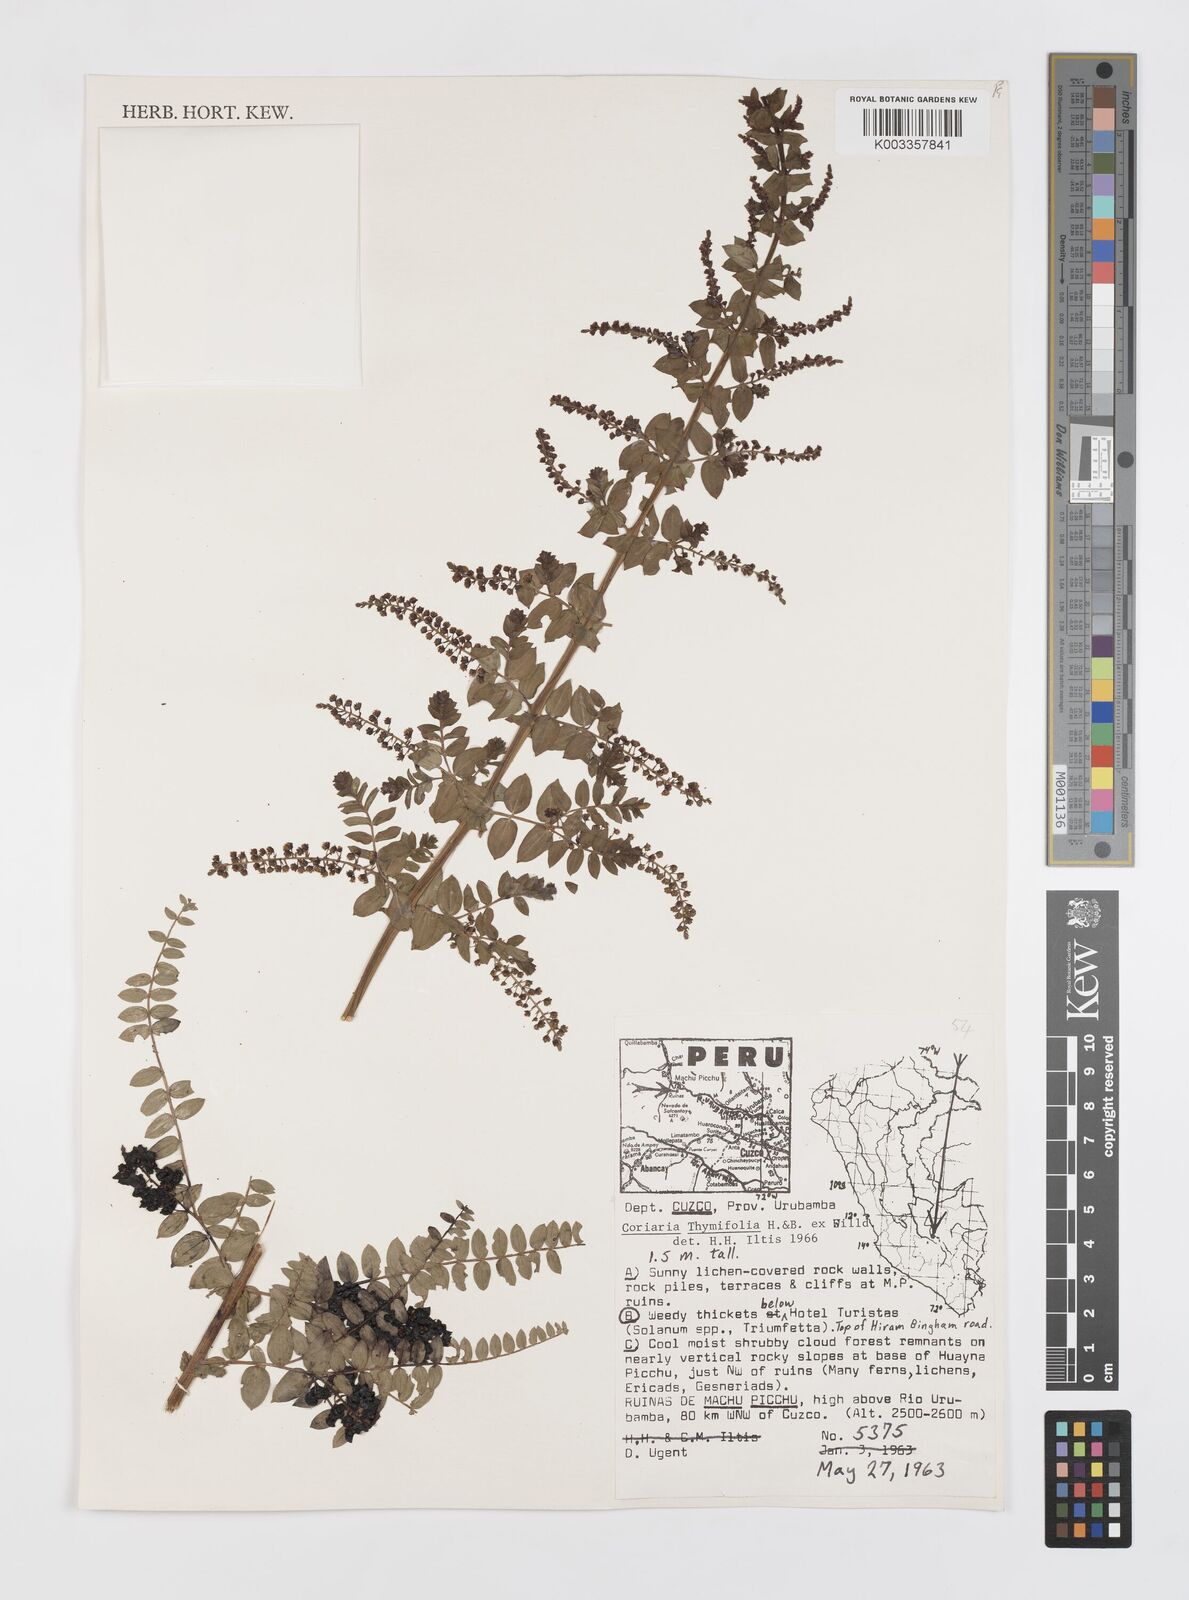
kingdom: Plantae
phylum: Tracheophyta
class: Magnoliopsida
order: Cucurbitales
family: Coriariaceae
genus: Coriaria
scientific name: Coriaria microphylla
